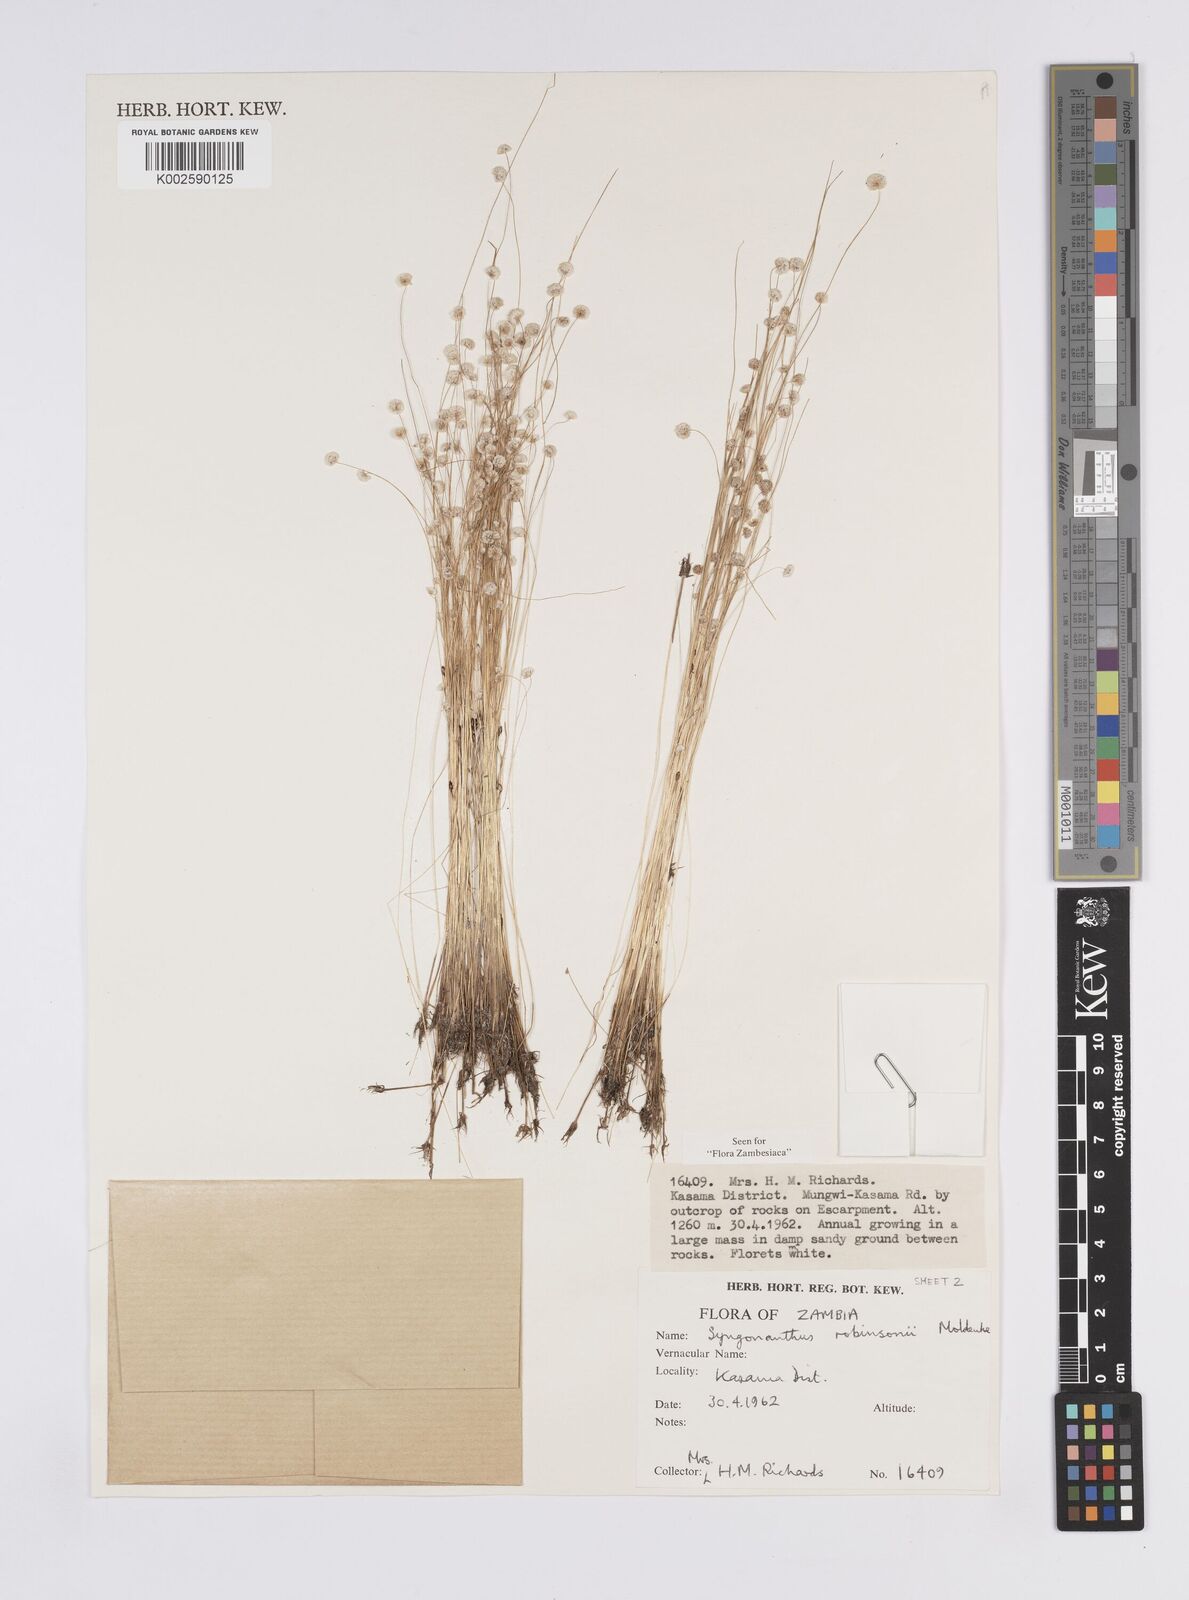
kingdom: Plantae
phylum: Tracheophyta
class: Liliopsida
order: Poales
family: Eriocaulaceae
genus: Syngonanthus
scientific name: Syngonanthus robinsonii
